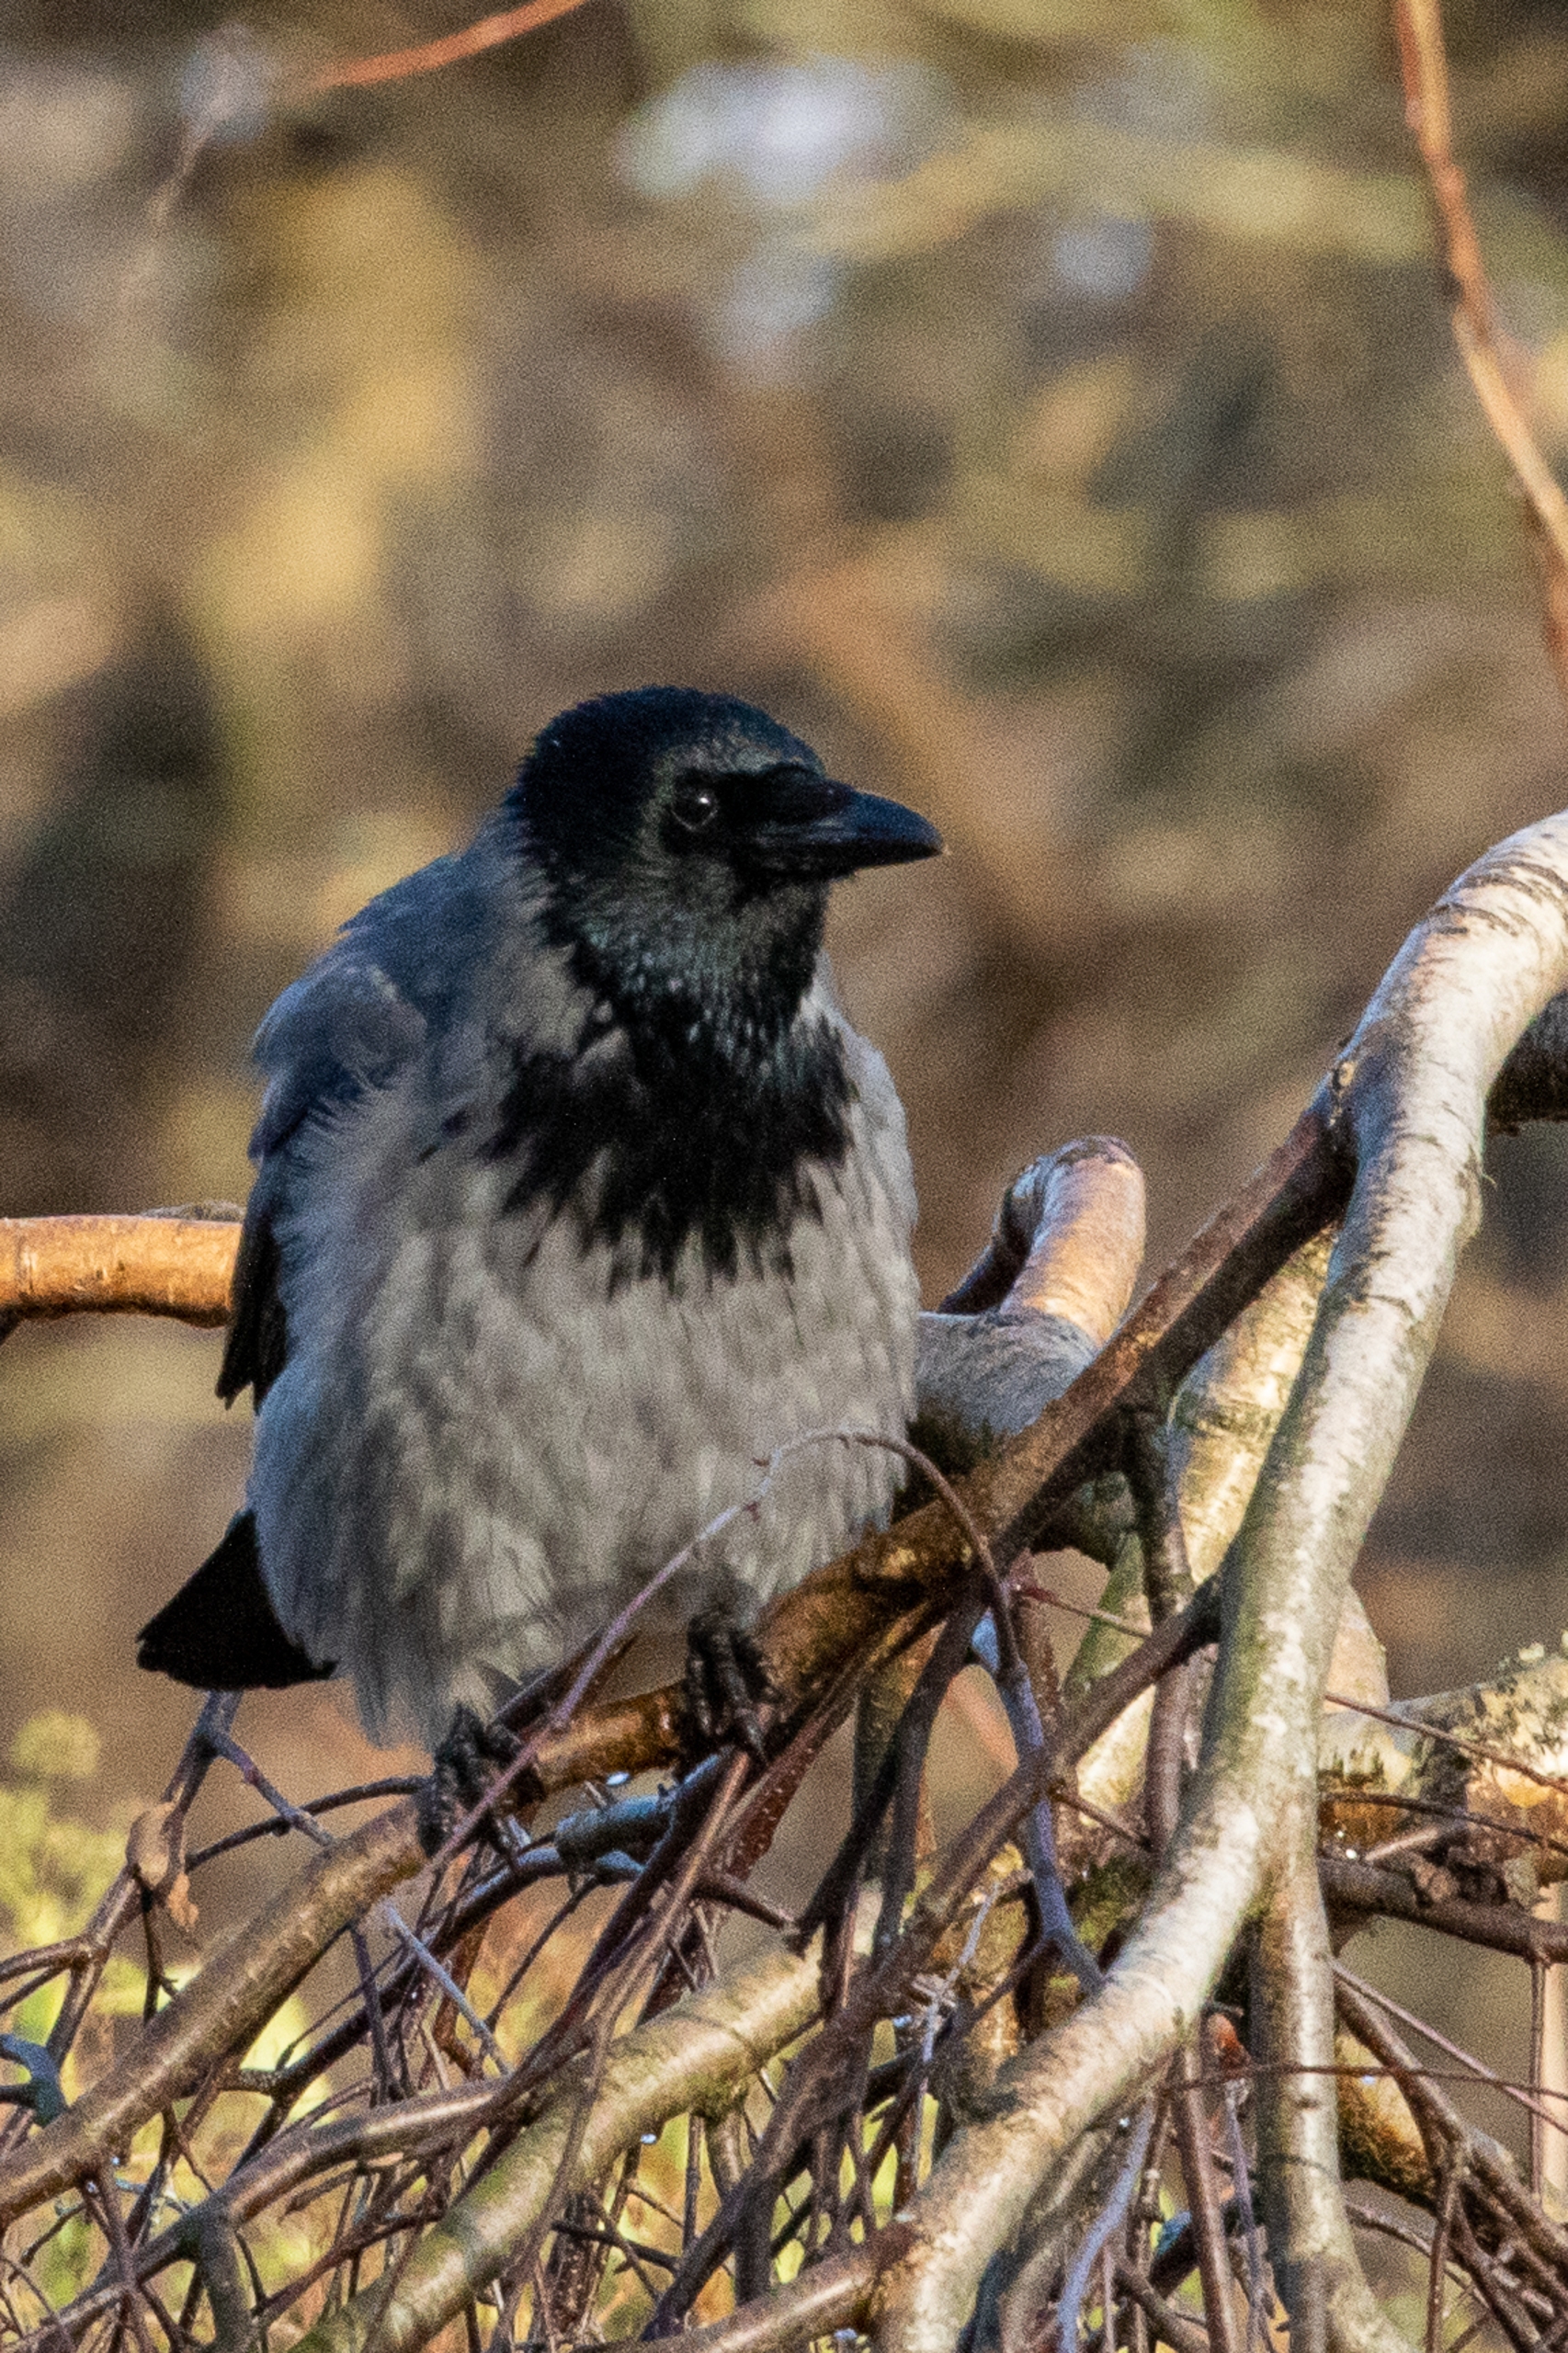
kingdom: Animalia
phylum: Chordata
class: Aves
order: Passeriformes
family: Corvidae
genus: Corvus
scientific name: Corvus cornix
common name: Gråkrage
